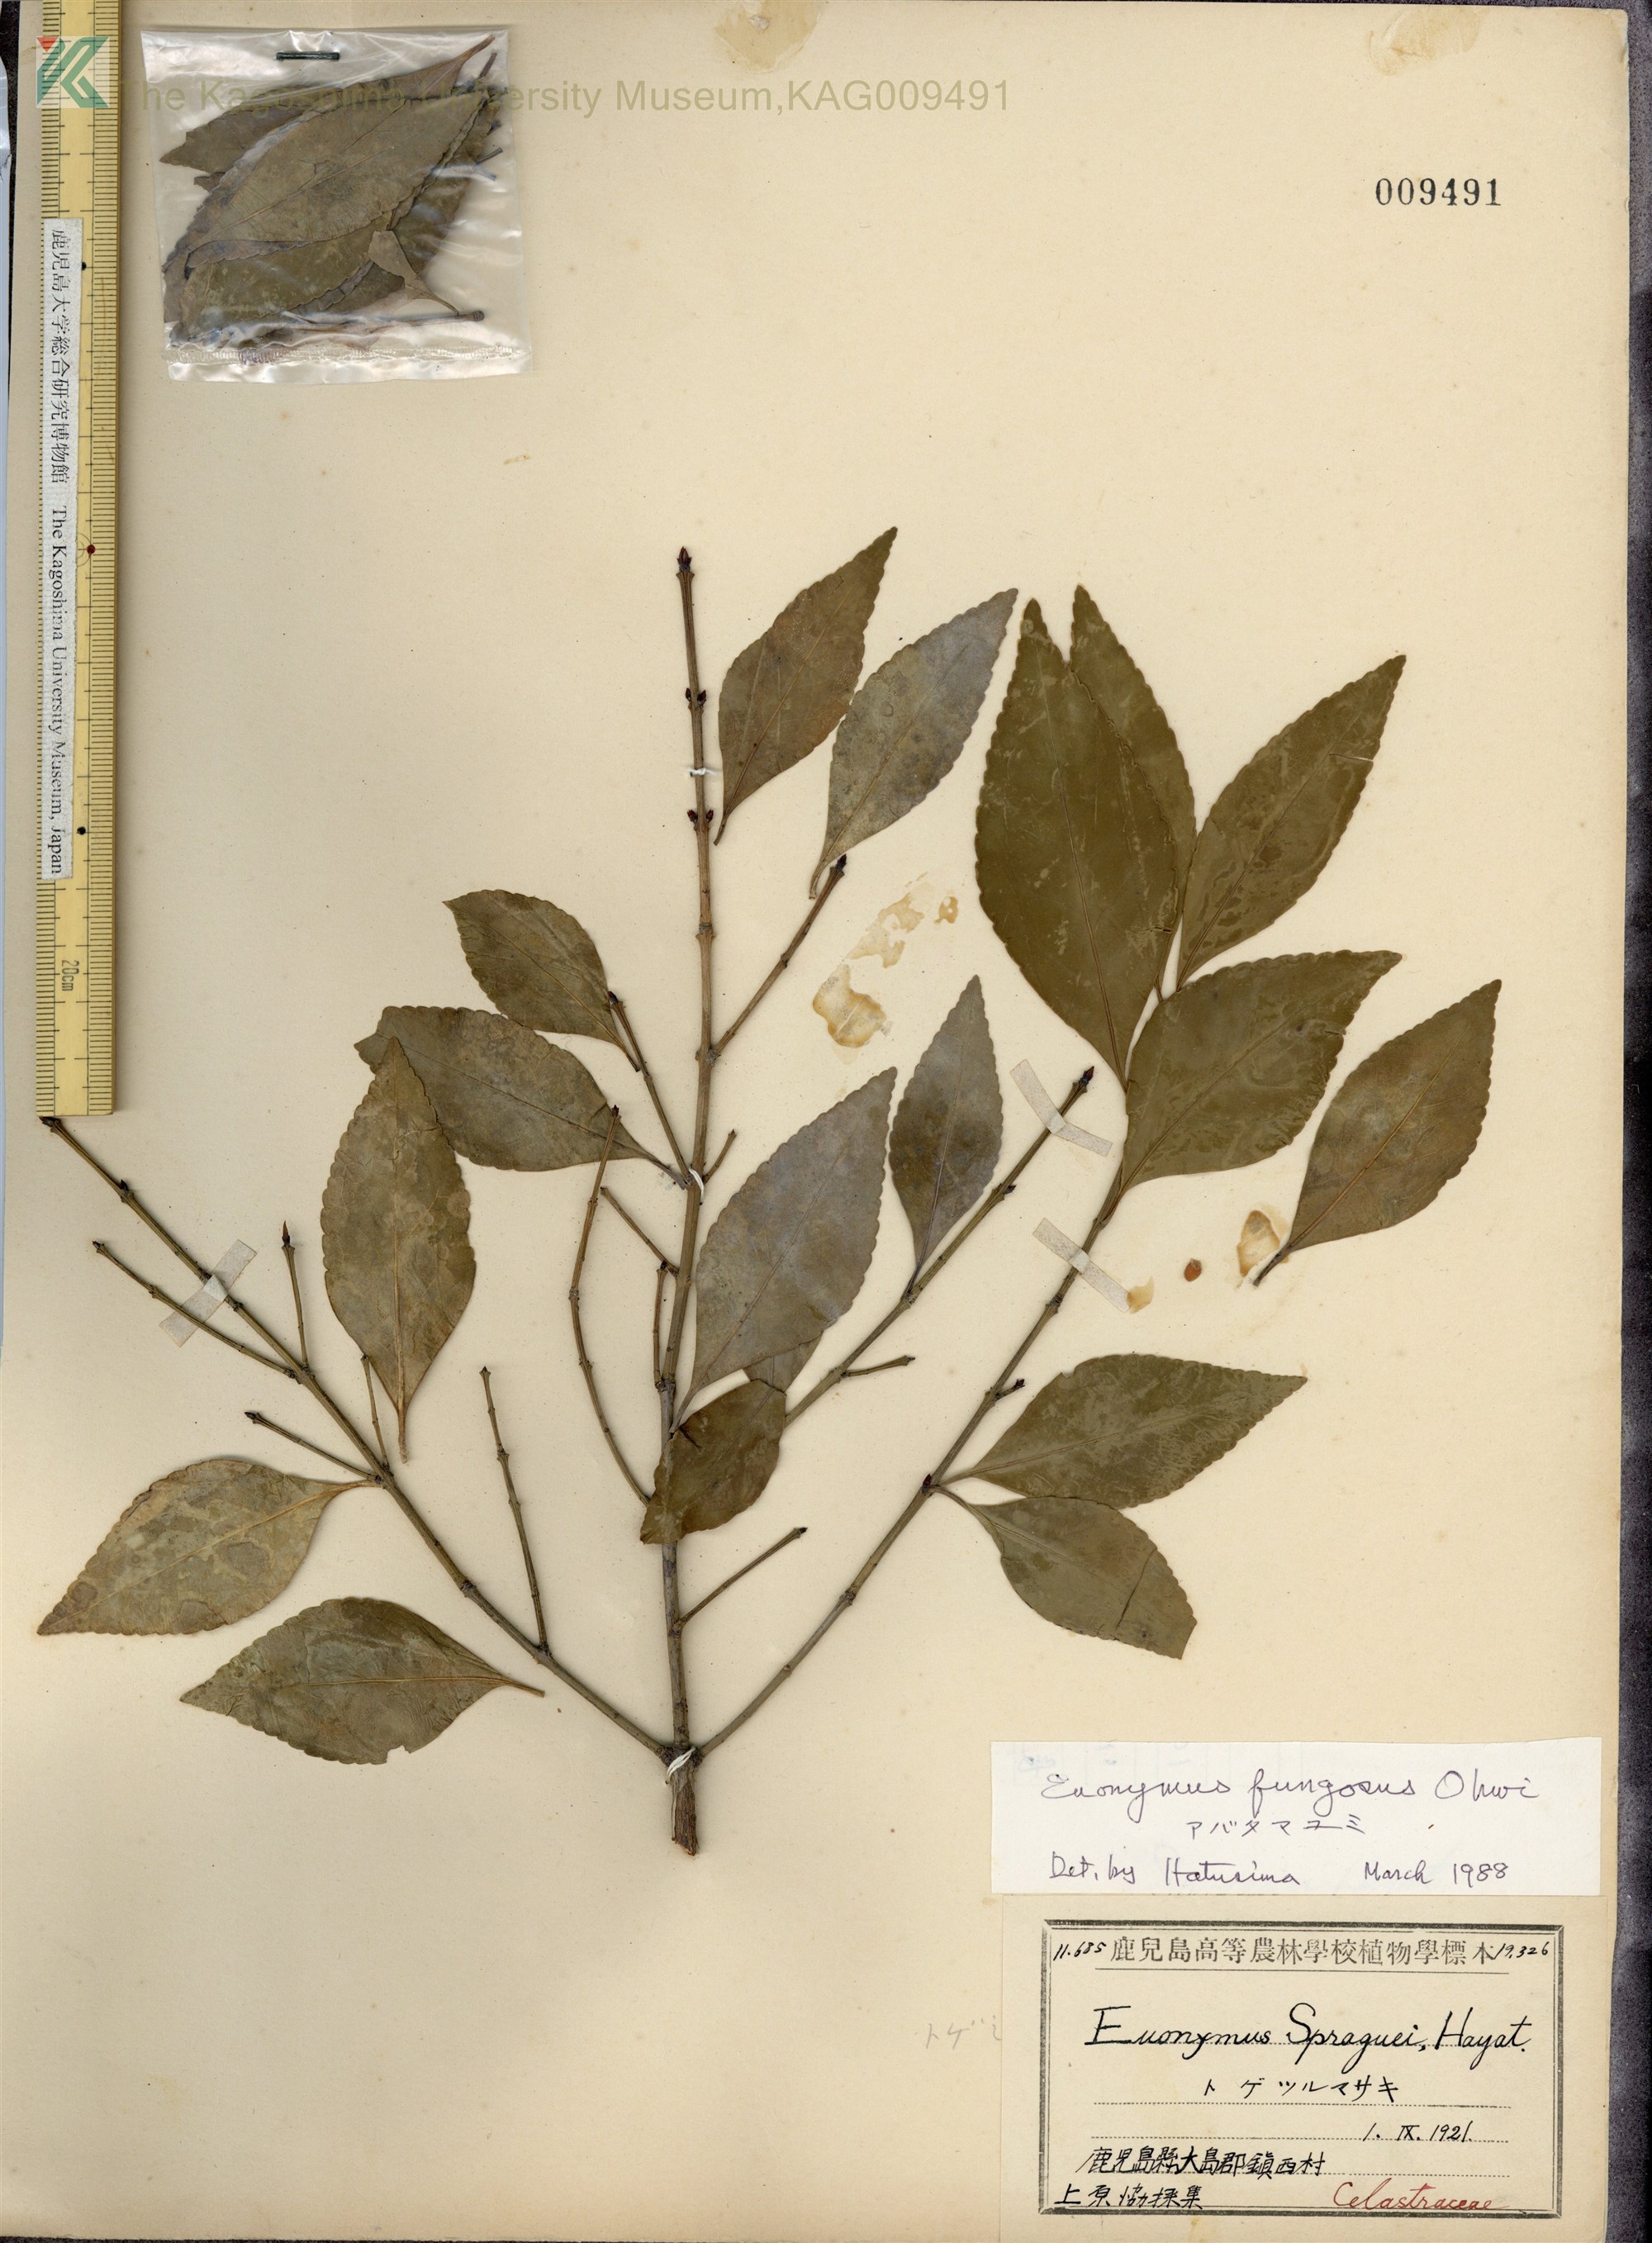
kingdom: Plantae
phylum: Tracheophyta
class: Magnoliopsida
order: Celastrales
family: Celastraceae
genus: Euonymus
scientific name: Euonymus echinatus
